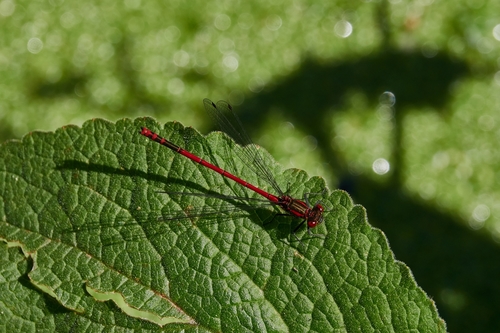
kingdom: Animalia
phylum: Arthropoda
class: Insecta
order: Odonata
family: Coenagrionidae
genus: Pyrrhosoma
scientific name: Pyrrhosoma nymphula
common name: Large red damsel
